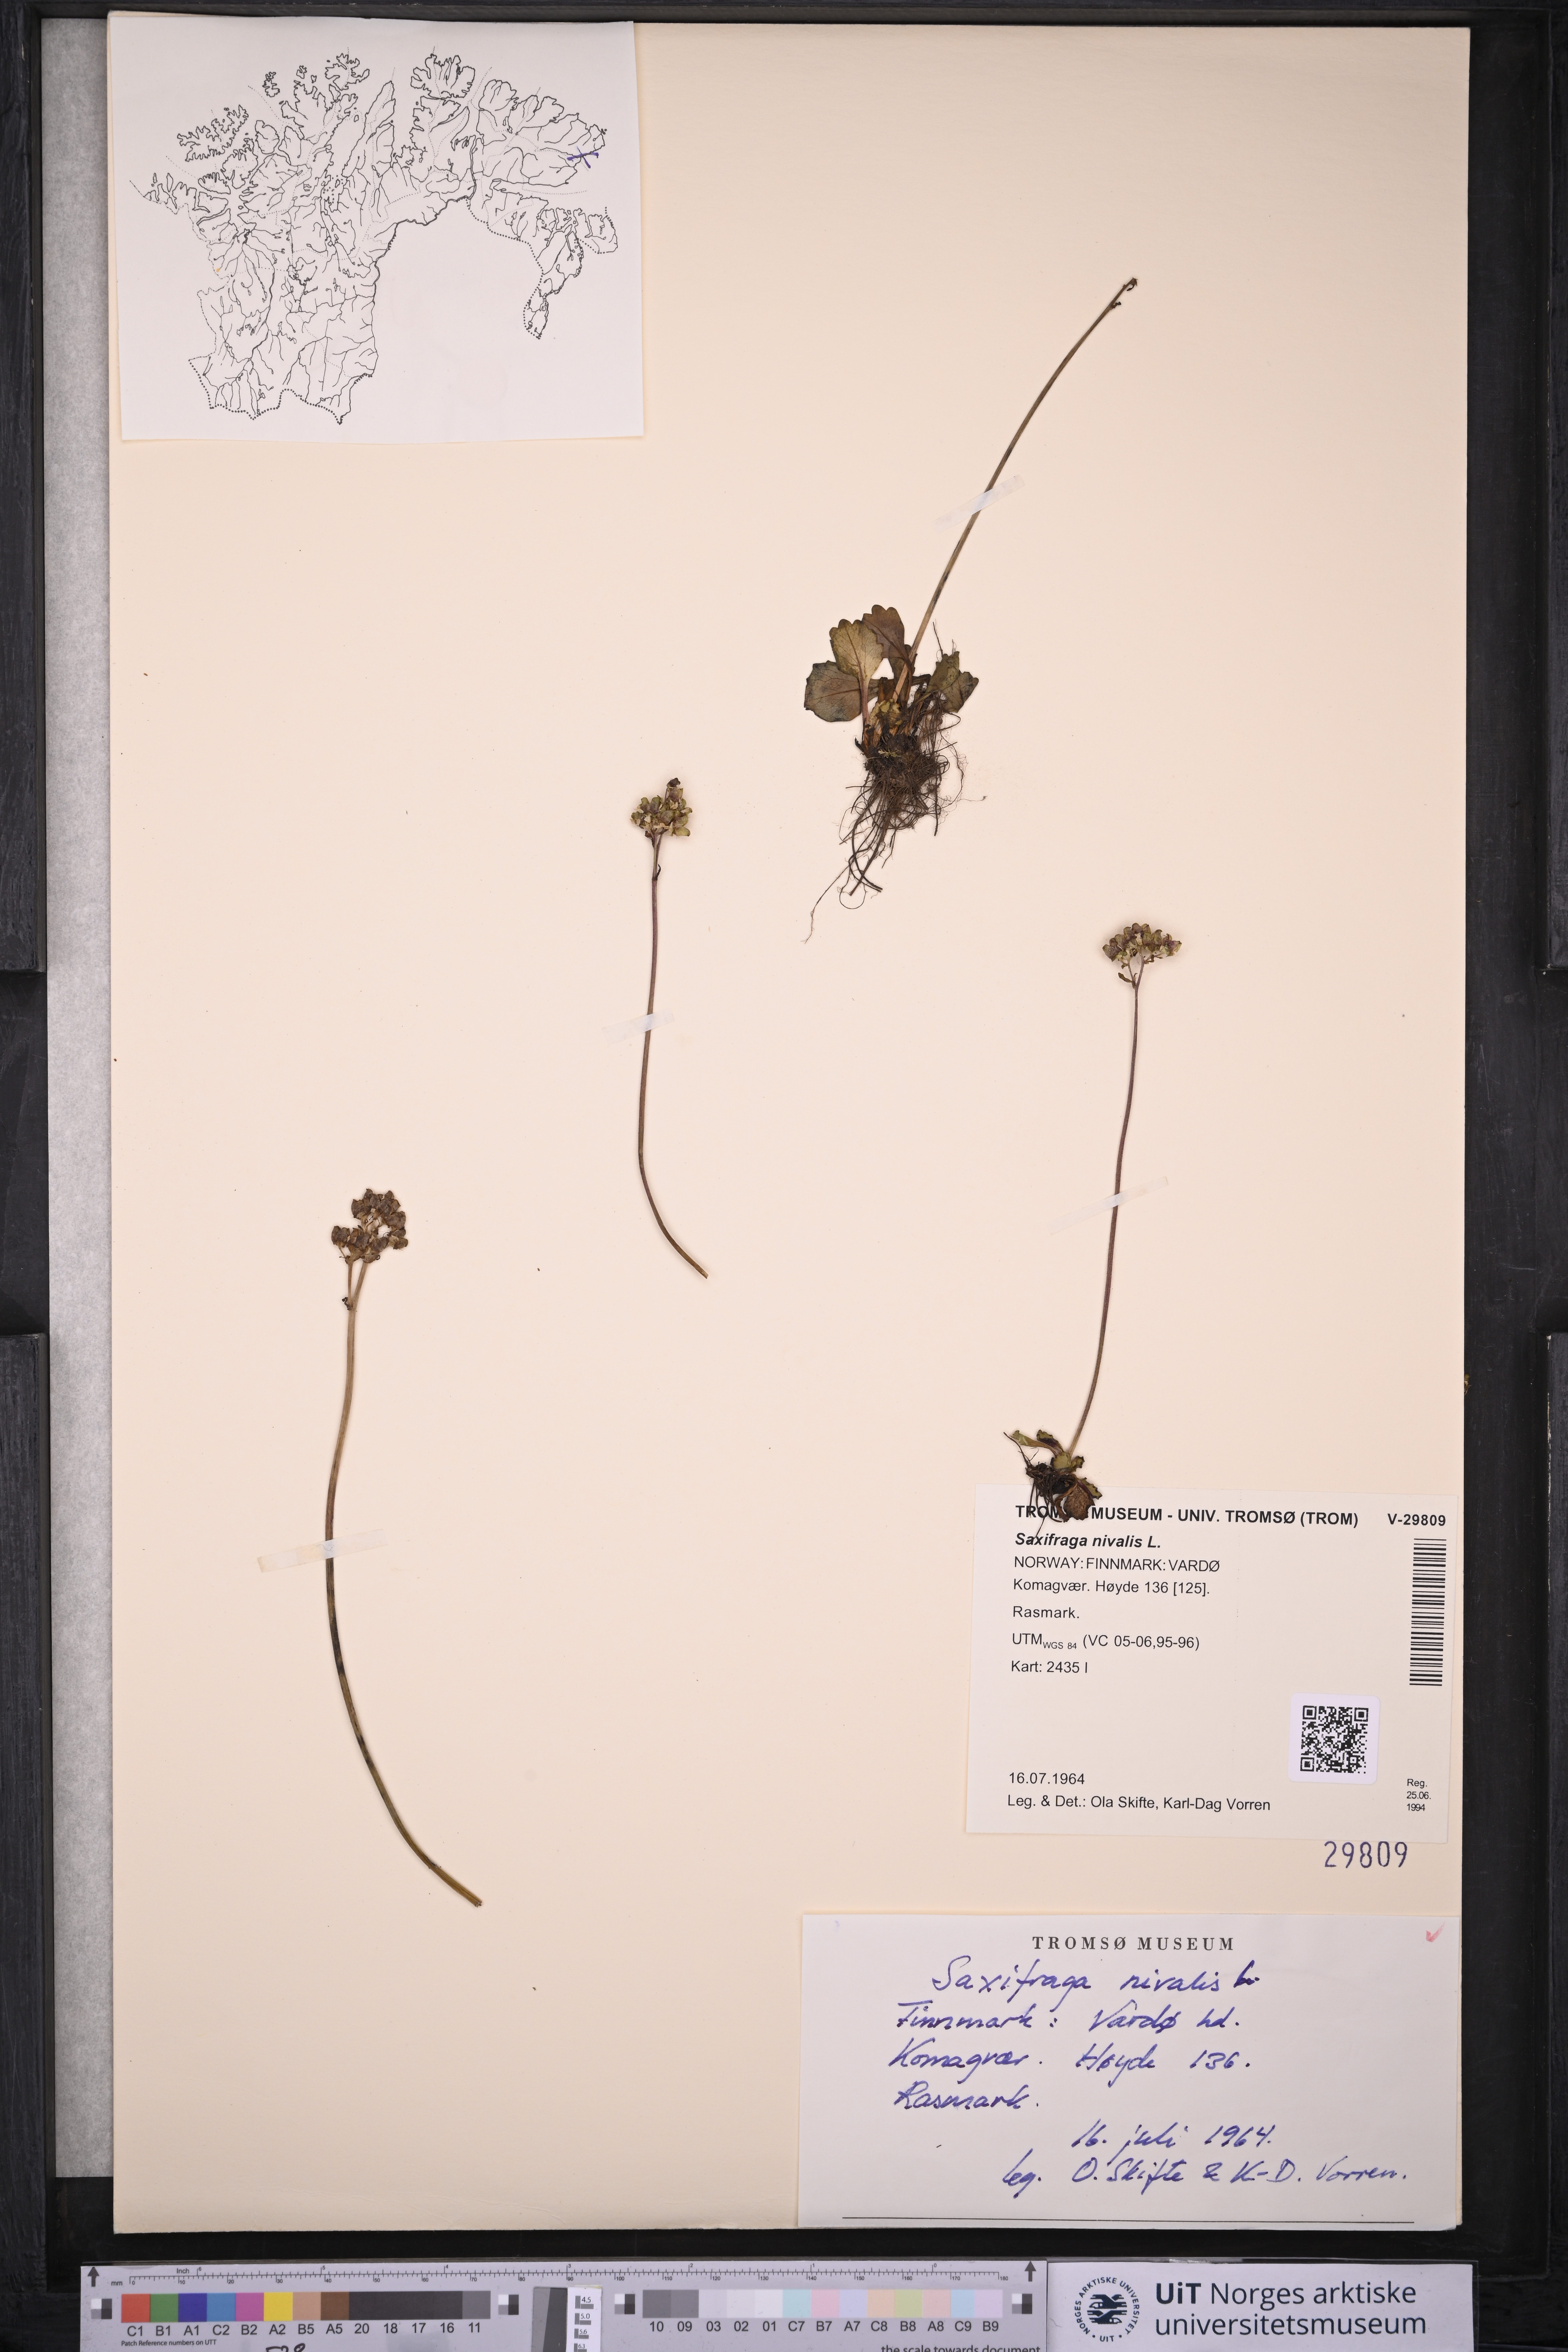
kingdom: Plantae
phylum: Tracheophyta
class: Magnoliopsida
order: Saxifragales
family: Saxifragaceae
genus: Micranthes
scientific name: Micranthes nivalis
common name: Alpine saxifrage
